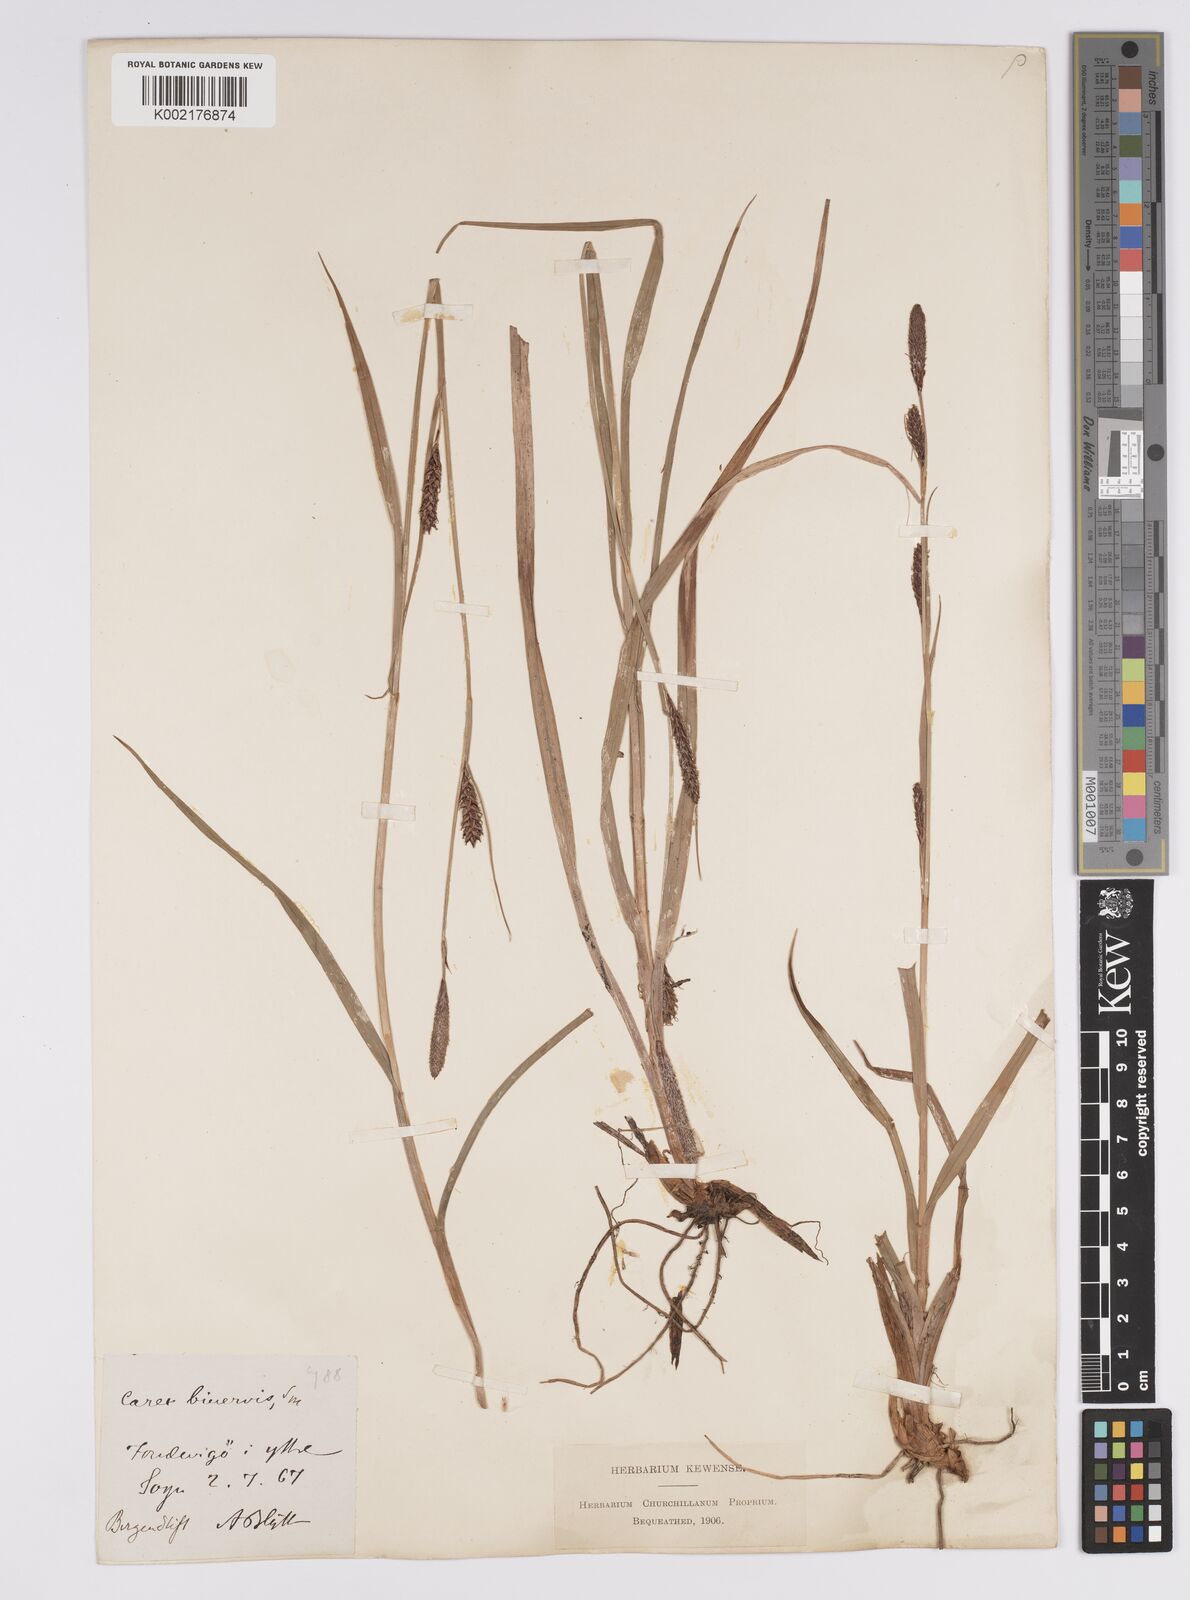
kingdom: Plantae
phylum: Tracheophyta
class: Liliopsida
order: Poales
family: Cyperaceae
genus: Carex
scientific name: Carex binervis
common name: Green-ribbed sedge
